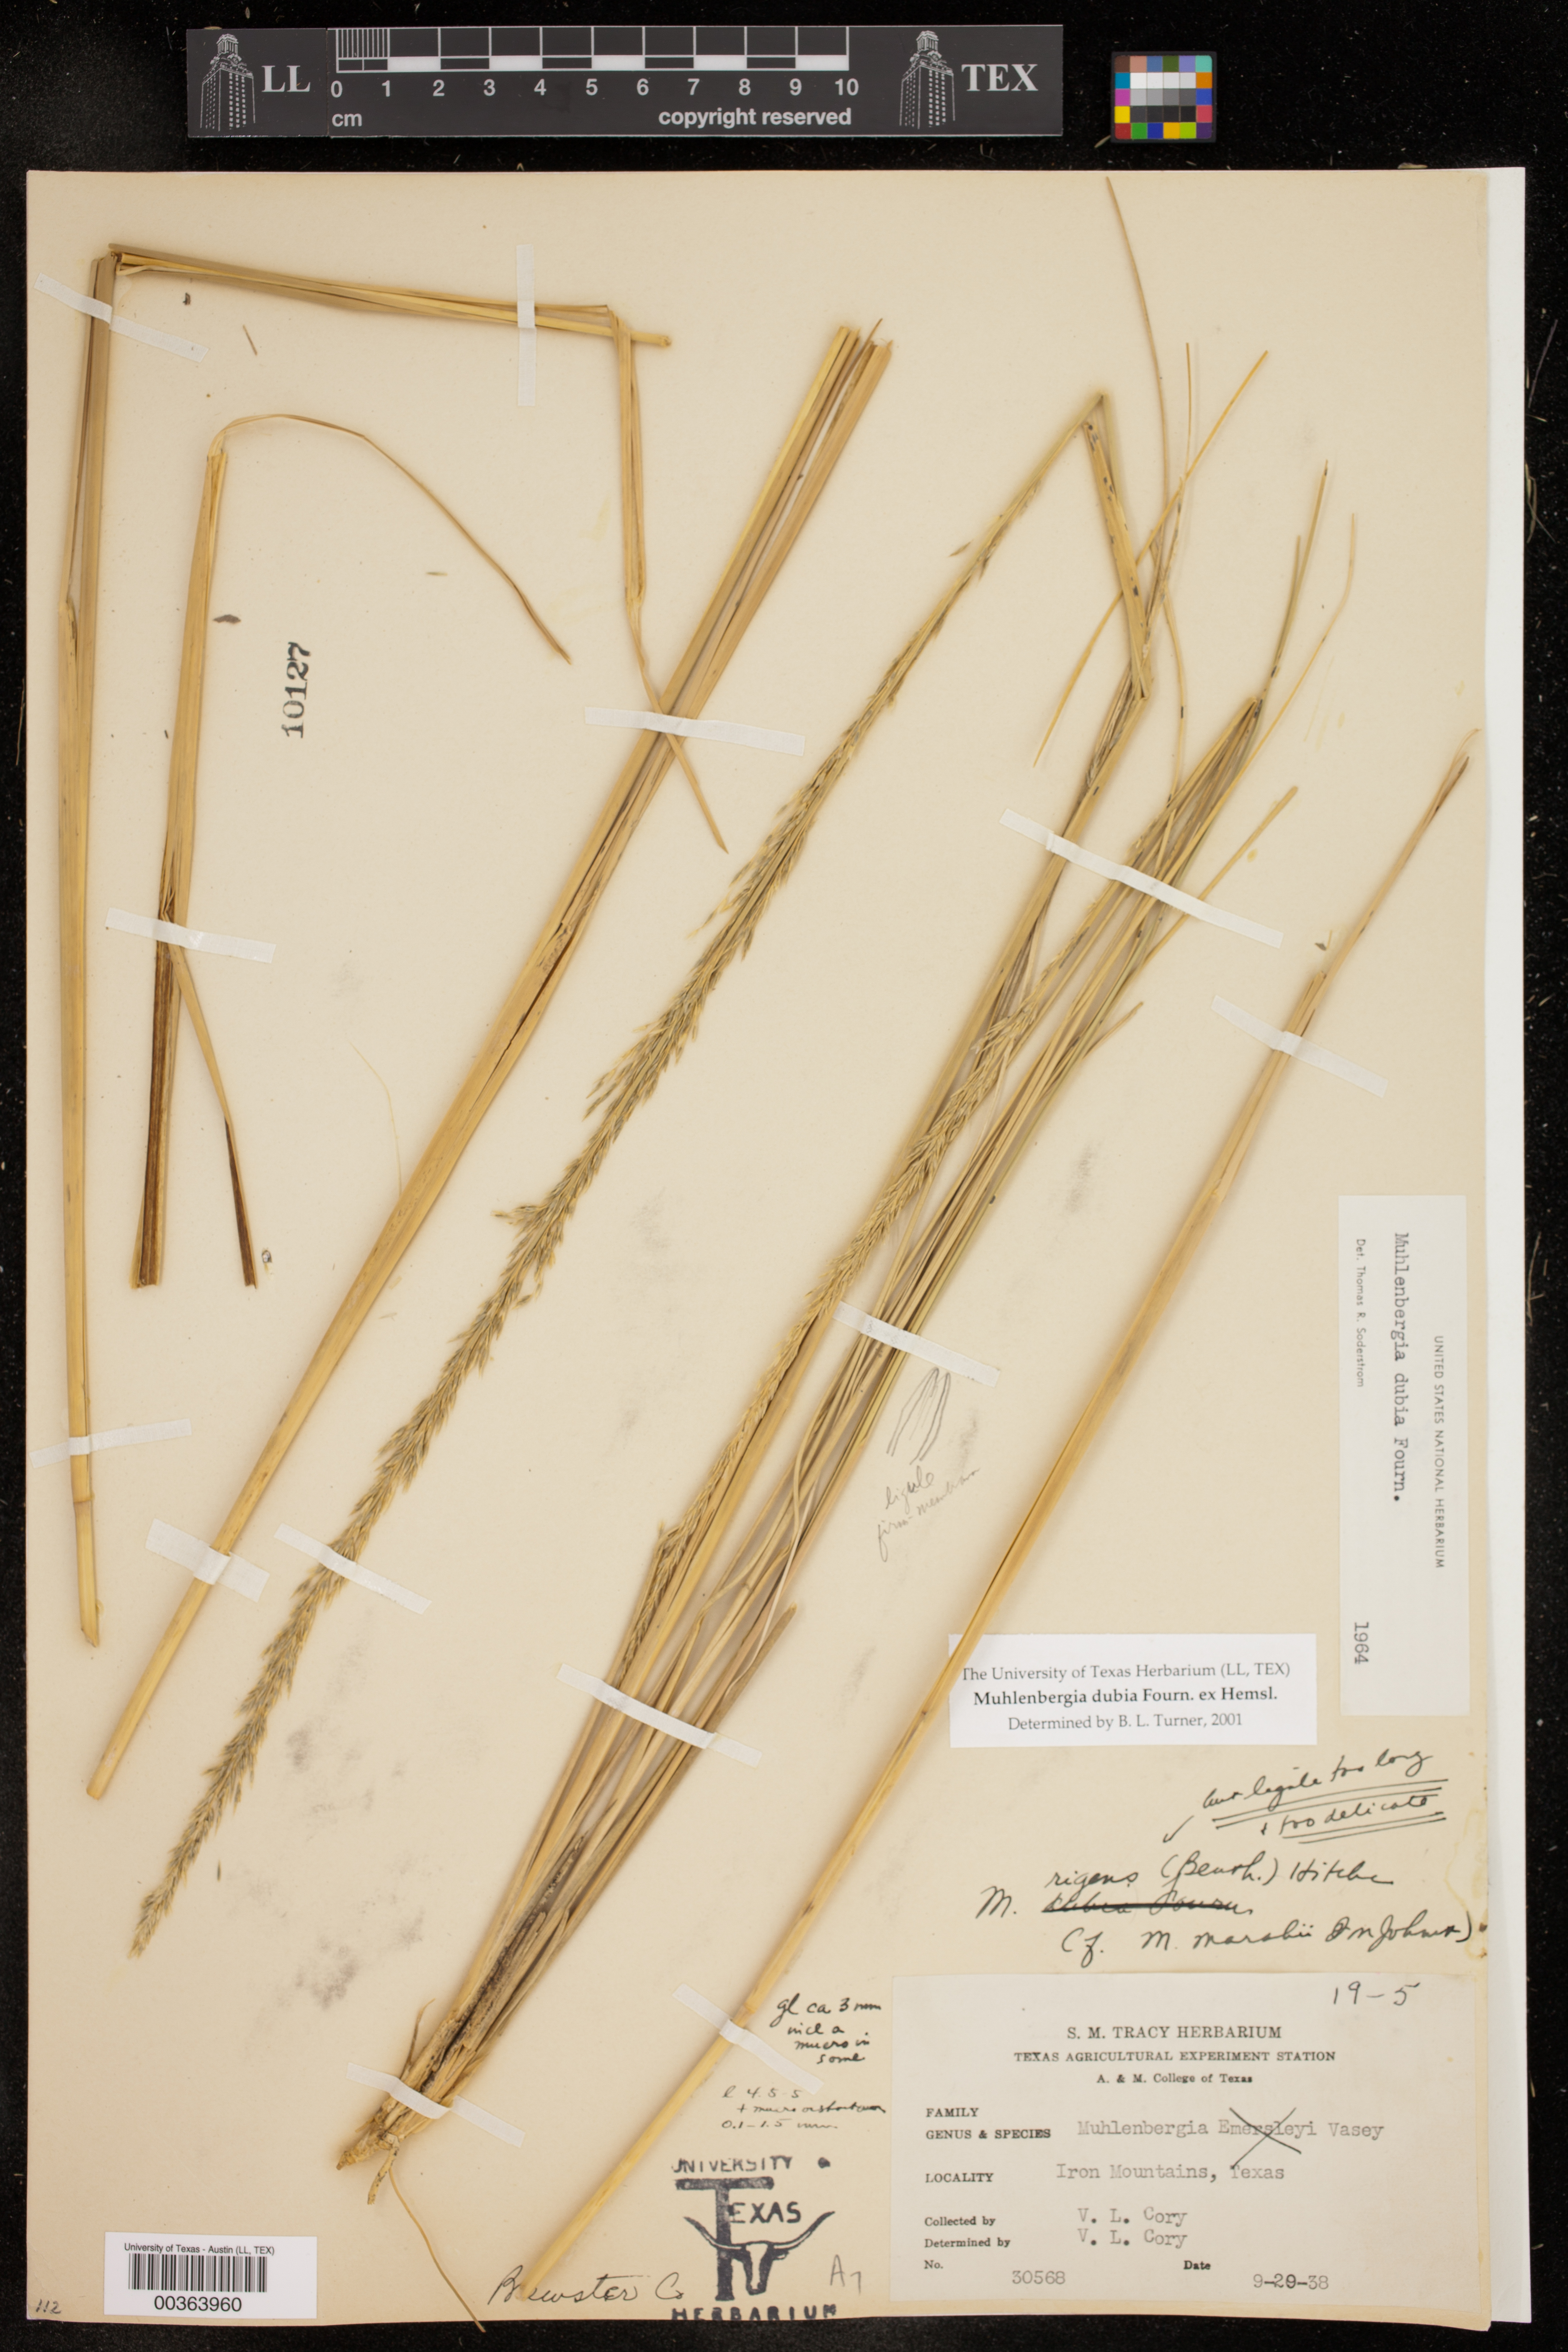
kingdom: Plantae
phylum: Tracheophyta
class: Liliopsida
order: Poales
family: Poaceae
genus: Muhlenbergia
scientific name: Muhlenbergia dubia
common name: Pine muhly
